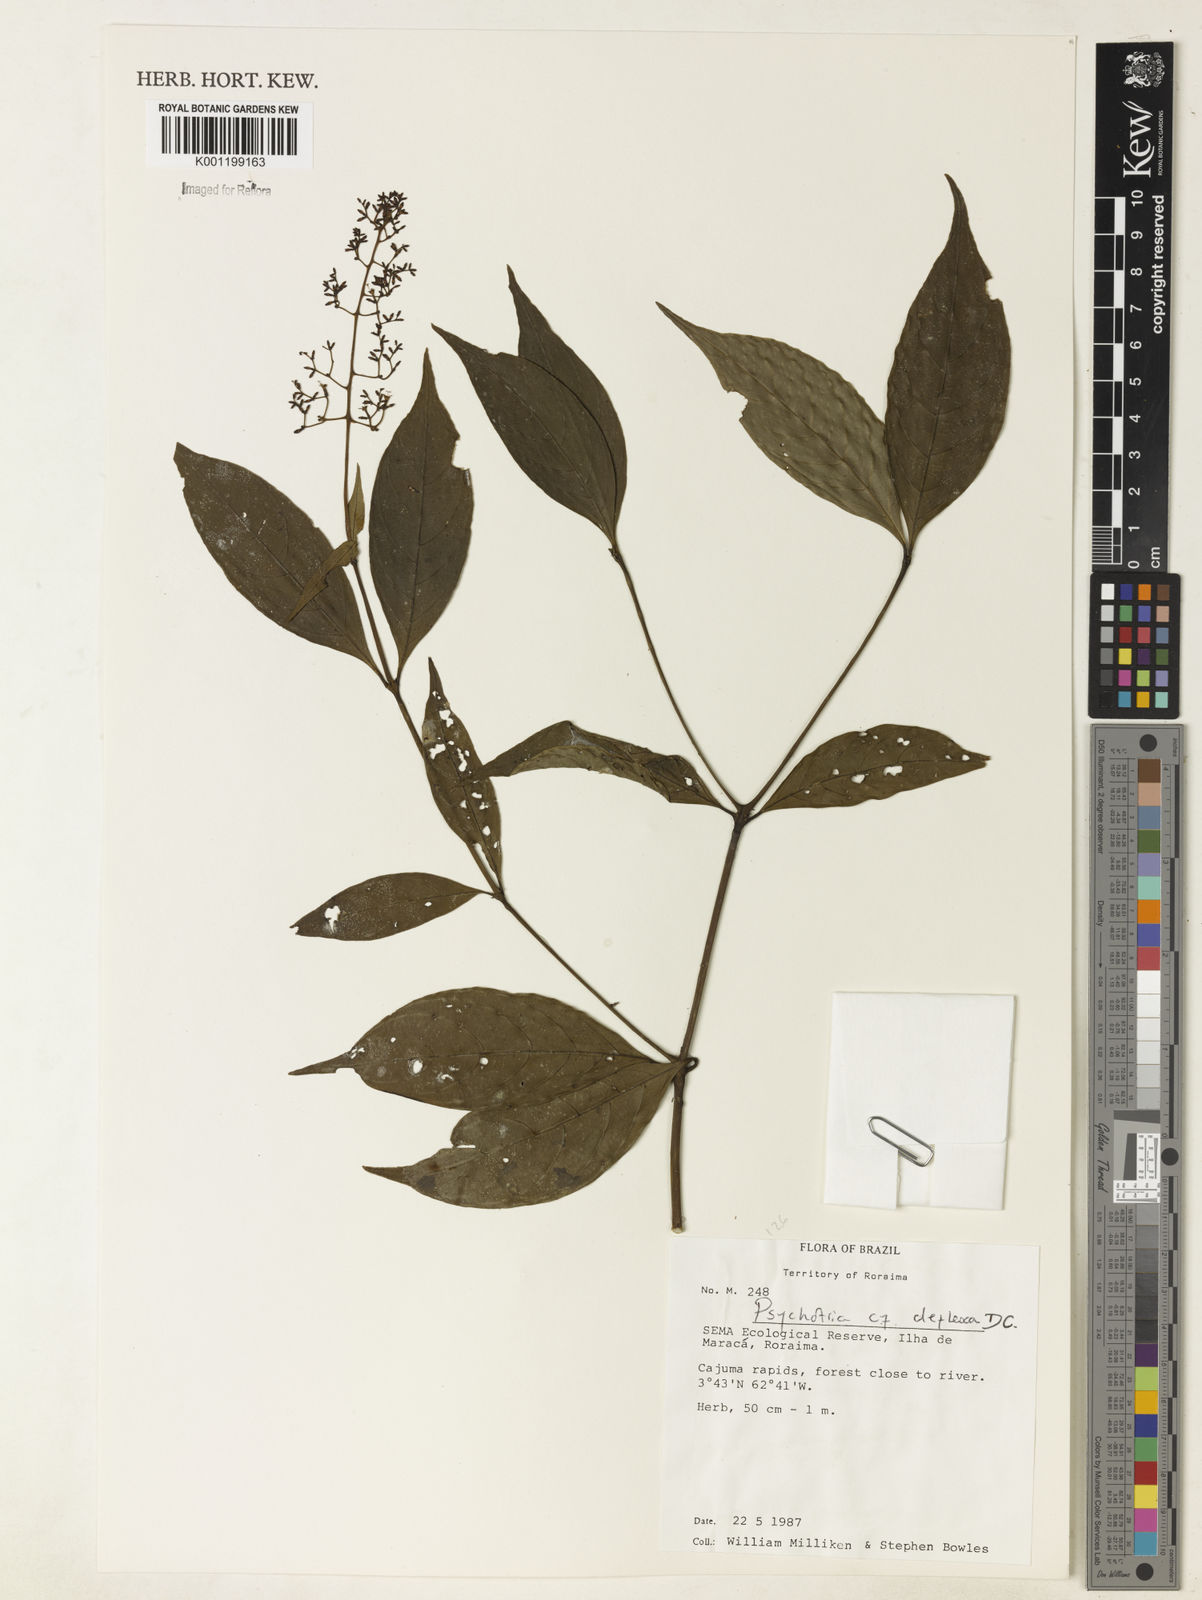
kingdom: Plantae
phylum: Tracheophyta
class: Magnoliopsida
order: Gentianales
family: Rubiaceae
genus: Palicourea
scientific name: Palicourea deflexa
